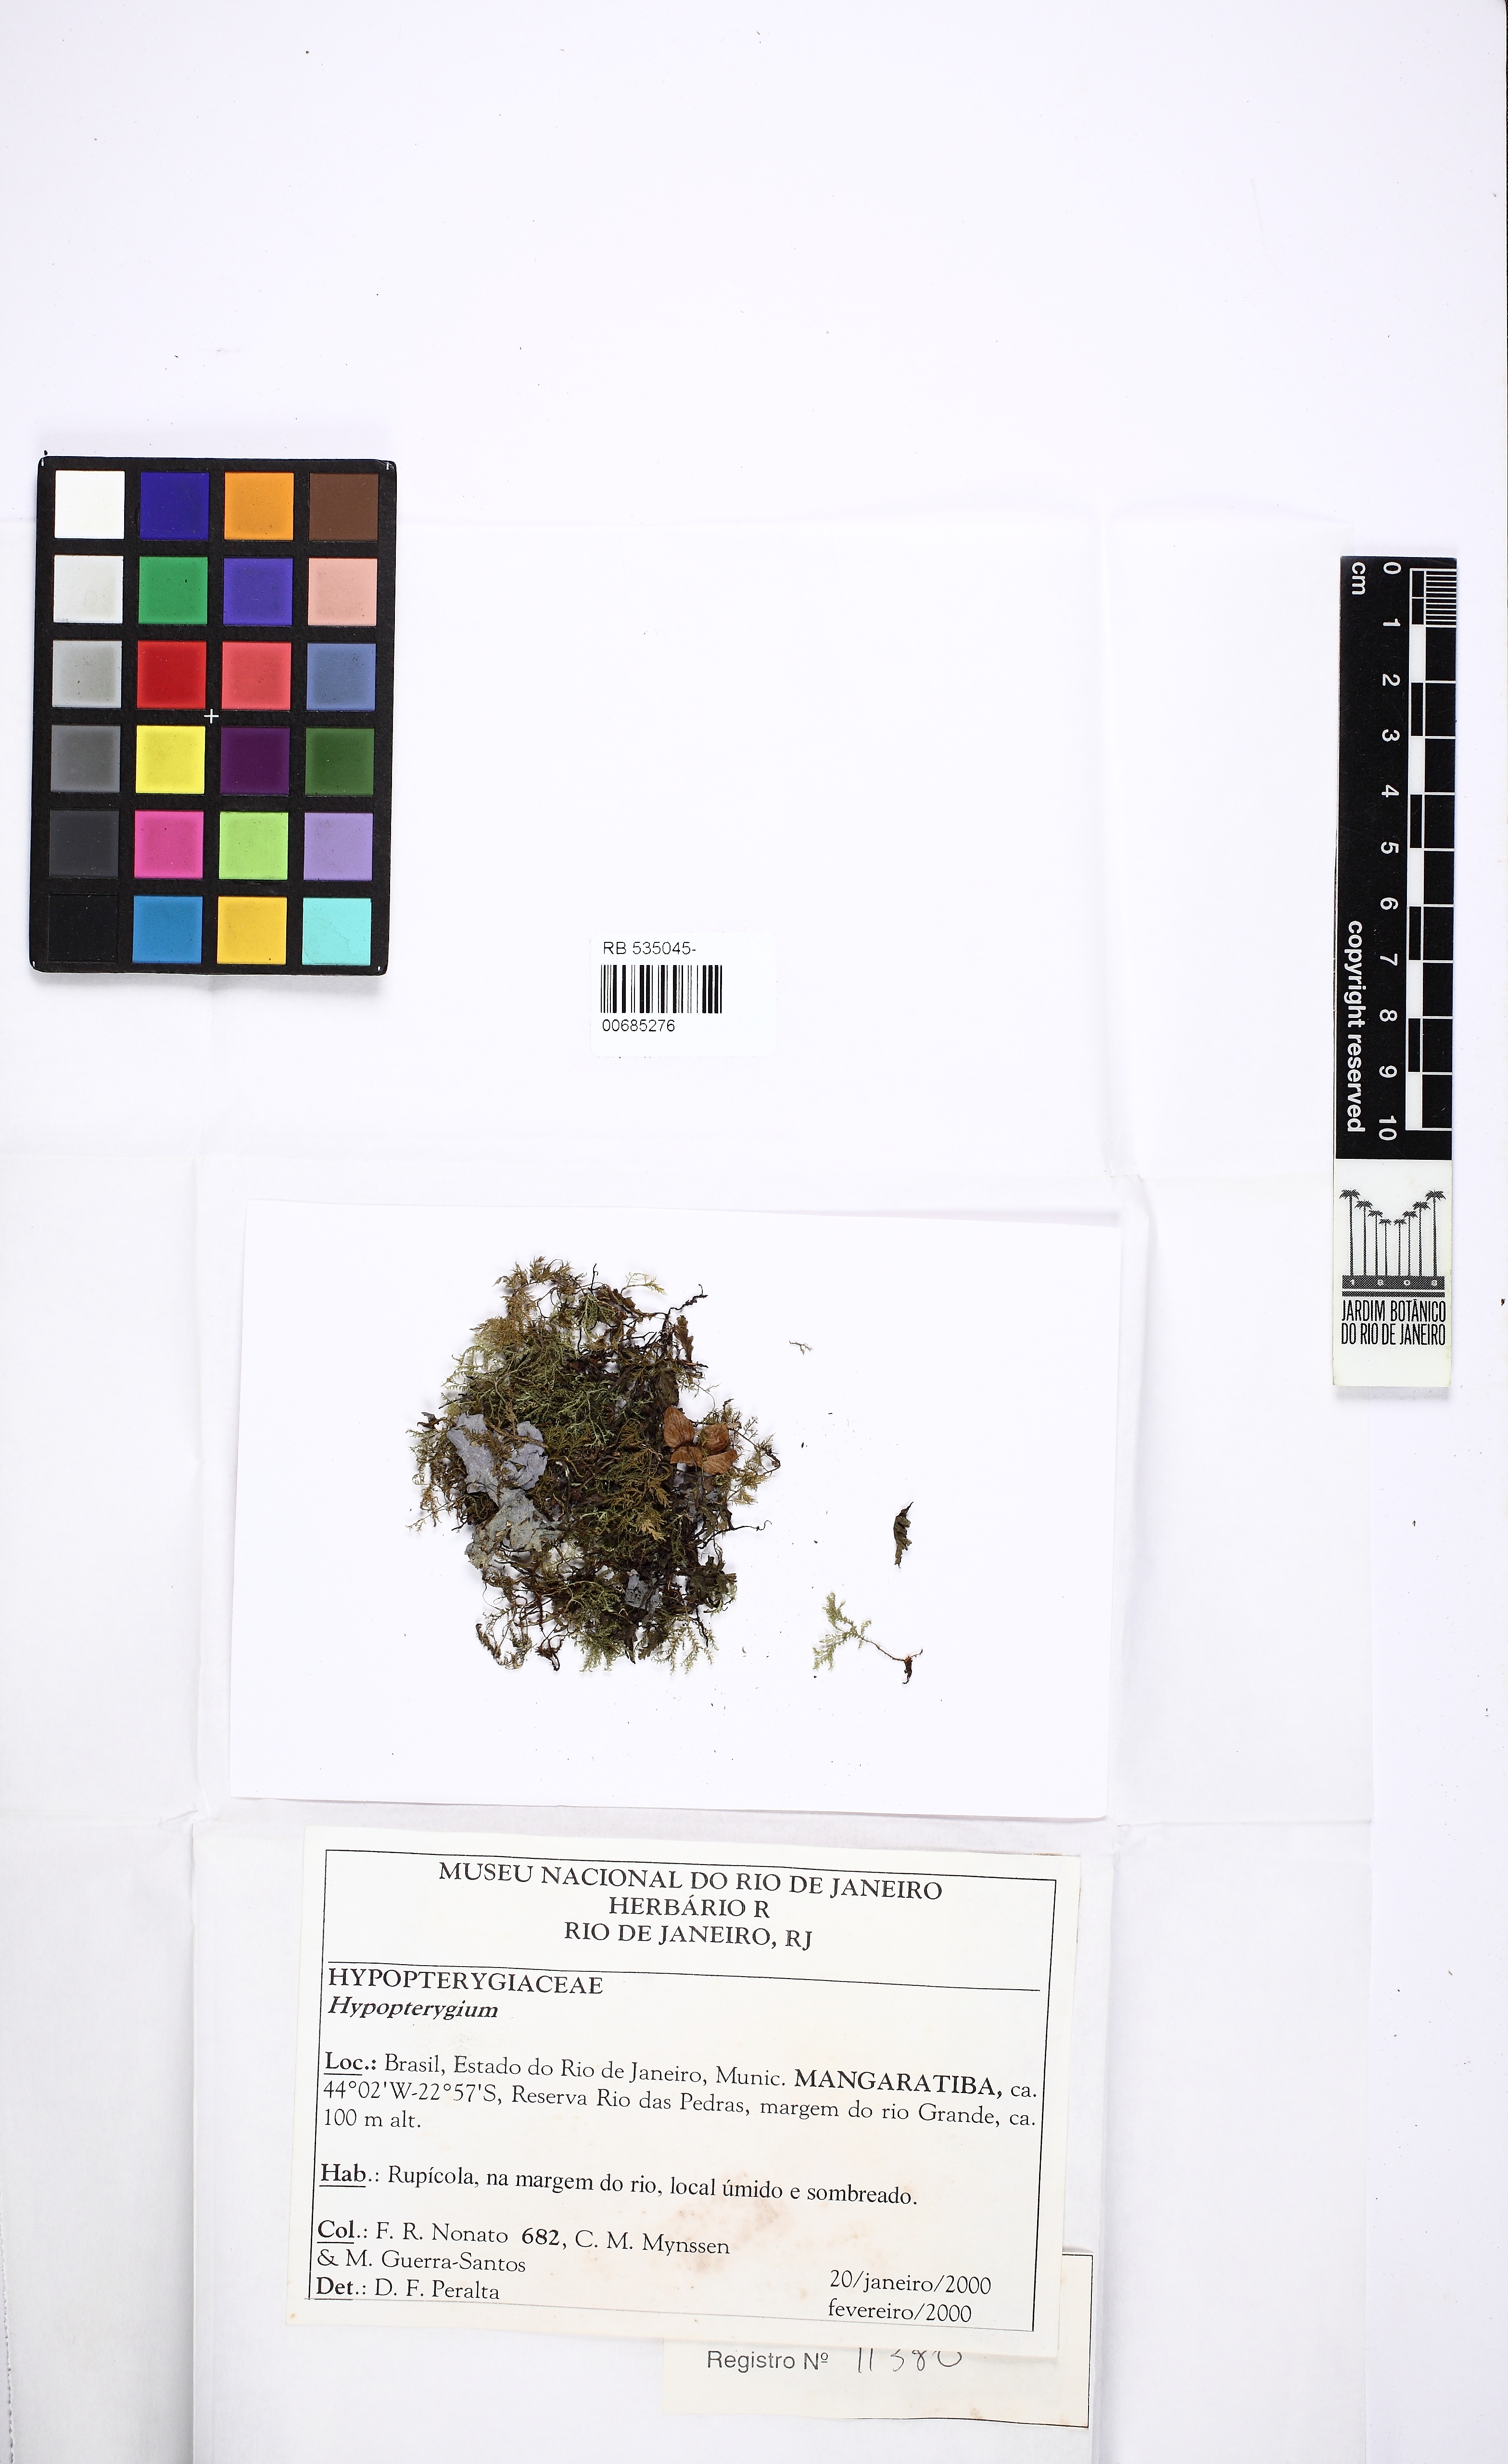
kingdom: Plantae
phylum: Bryophyta
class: Bryopsida
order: Hypopterygiales
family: Hypopterygiaceae
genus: Hypopterygium
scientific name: Hypopterygium
